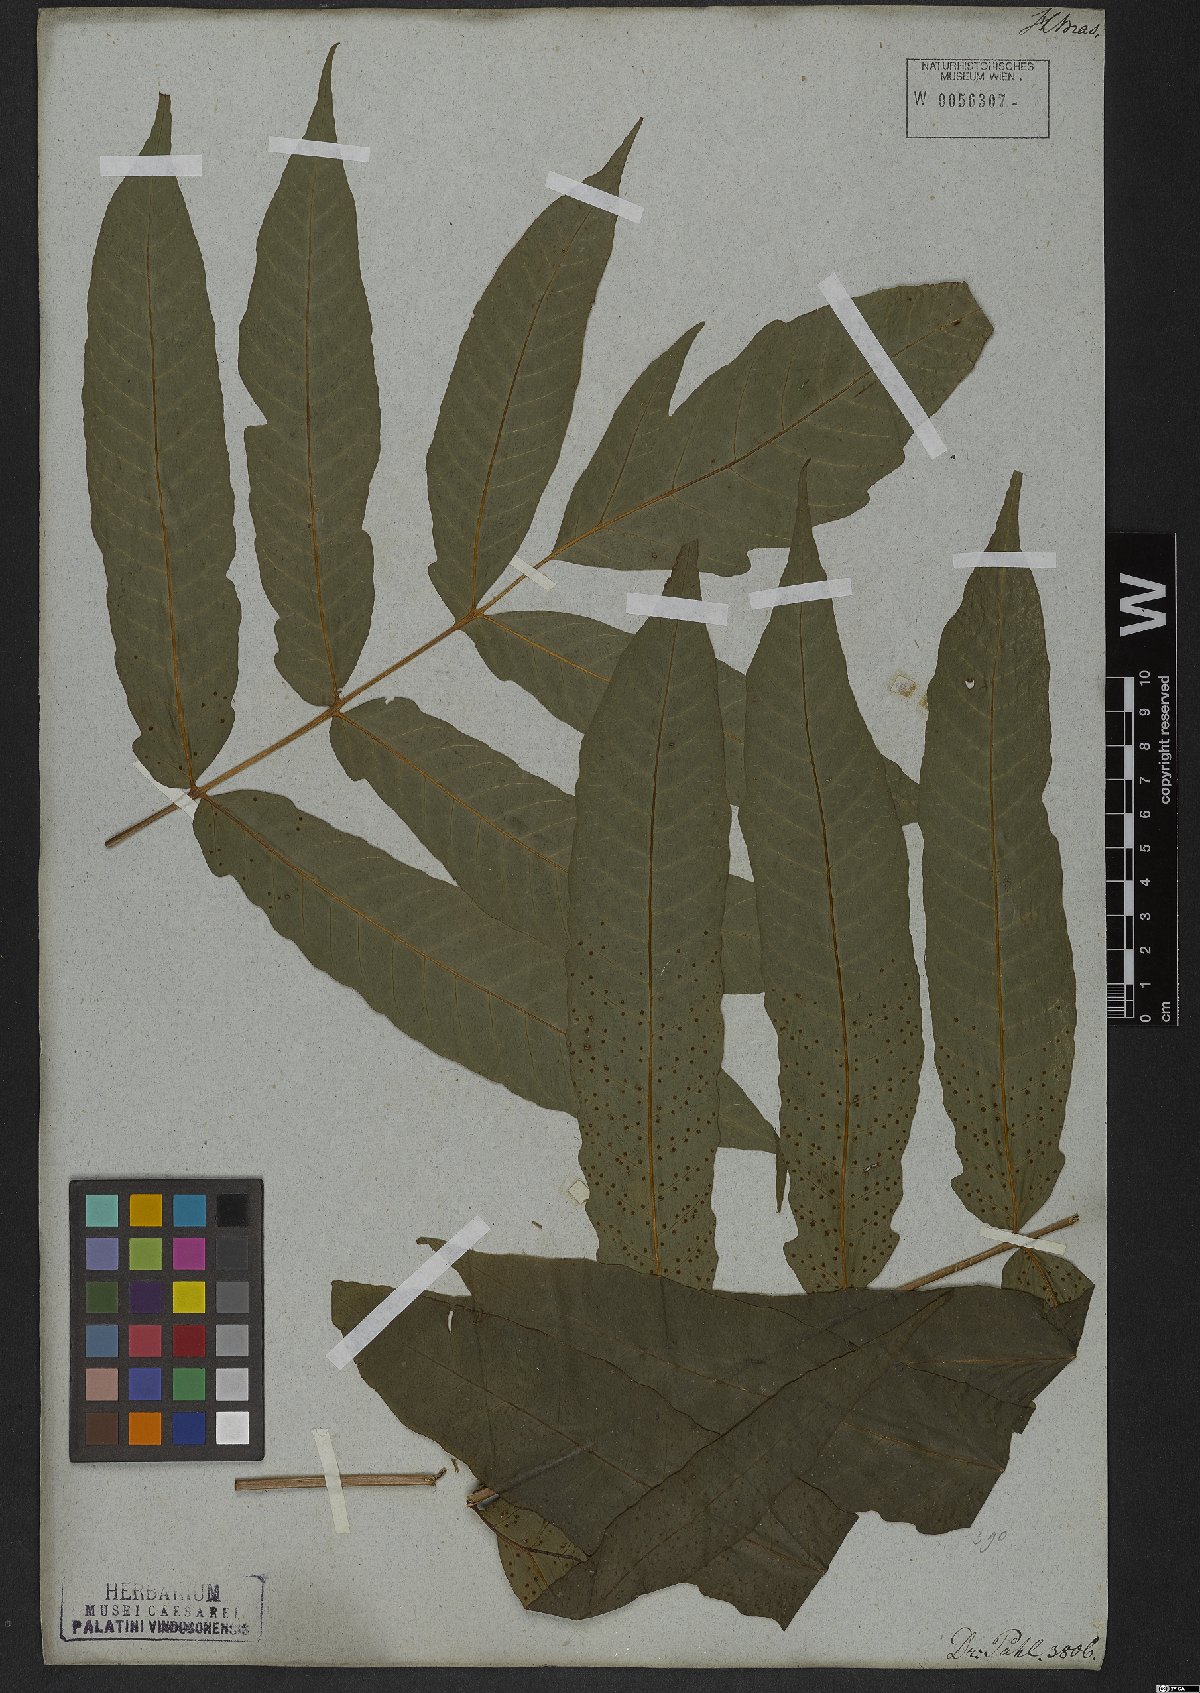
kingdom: Plantae
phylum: Tracheophyta
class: Polypodiopsida
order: Polypodiales
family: Tectariaceae
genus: Tectaria
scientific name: Tectaria incisa
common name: Incised halberd fern
